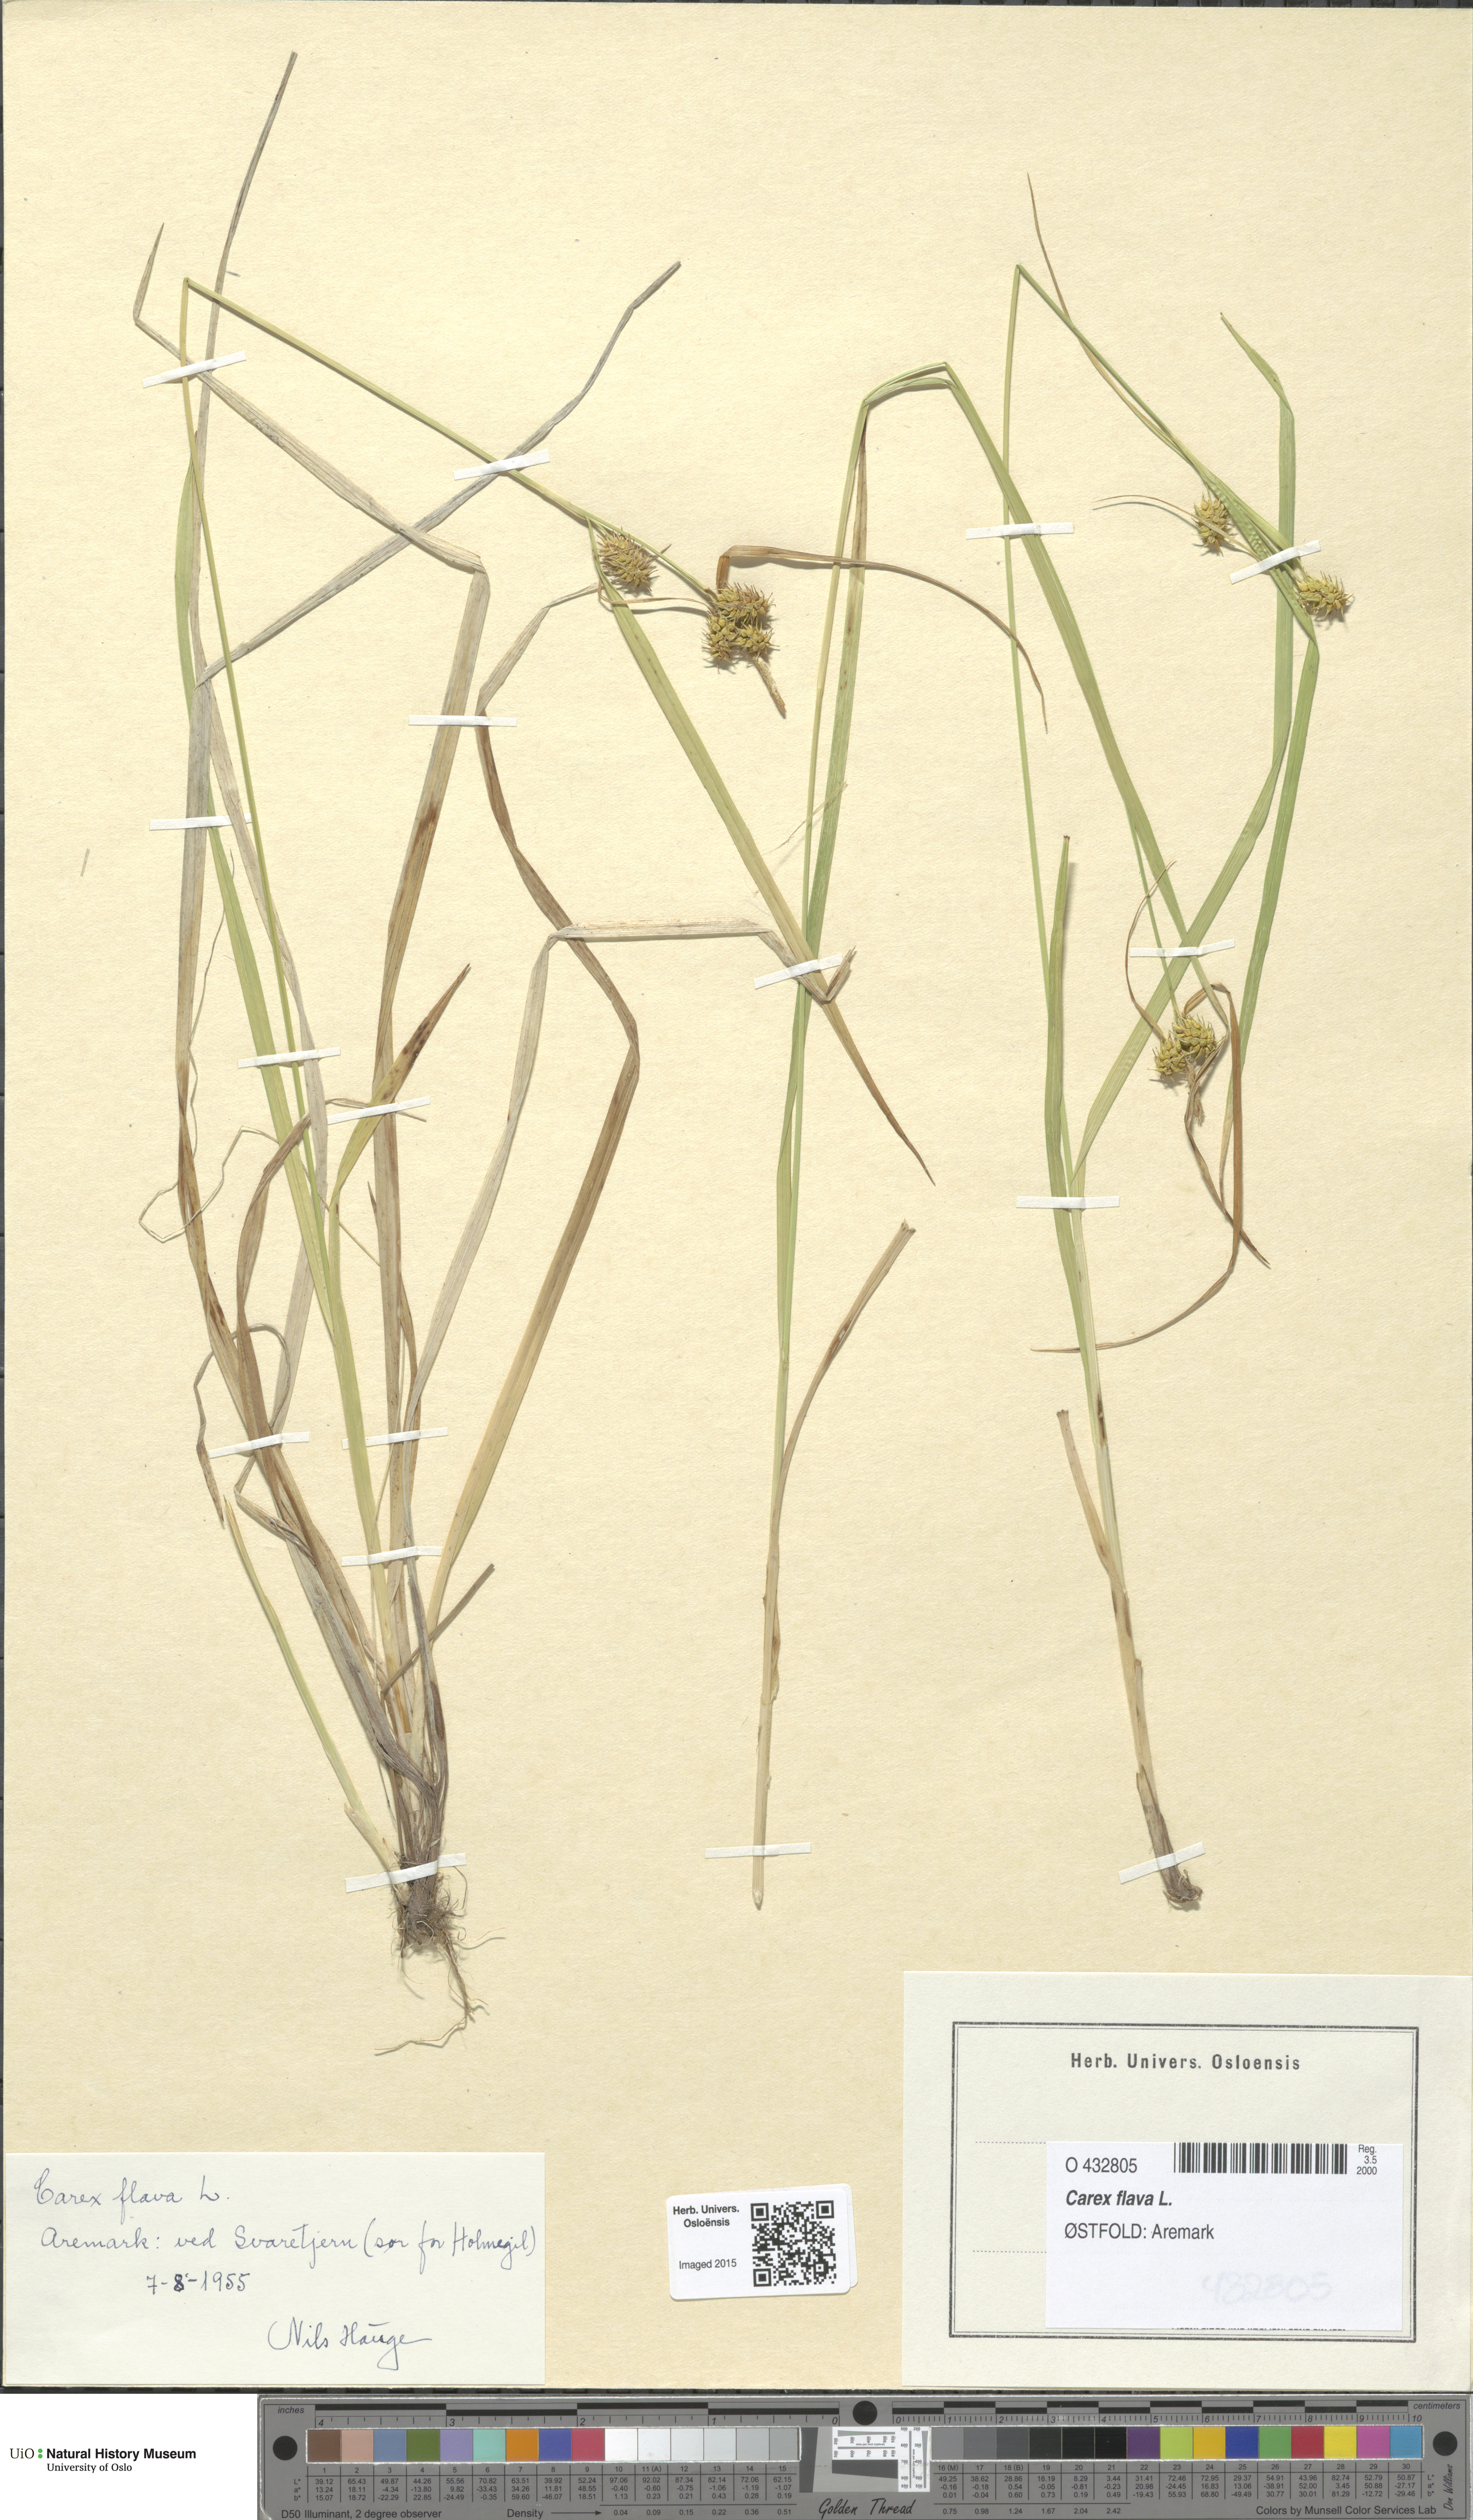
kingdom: Plantae
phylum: Tracheophyta
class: Liliopsida
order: Poales
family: Cyperaceae
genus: Carex
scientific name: Carex flava
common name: Large yellow-sedge
